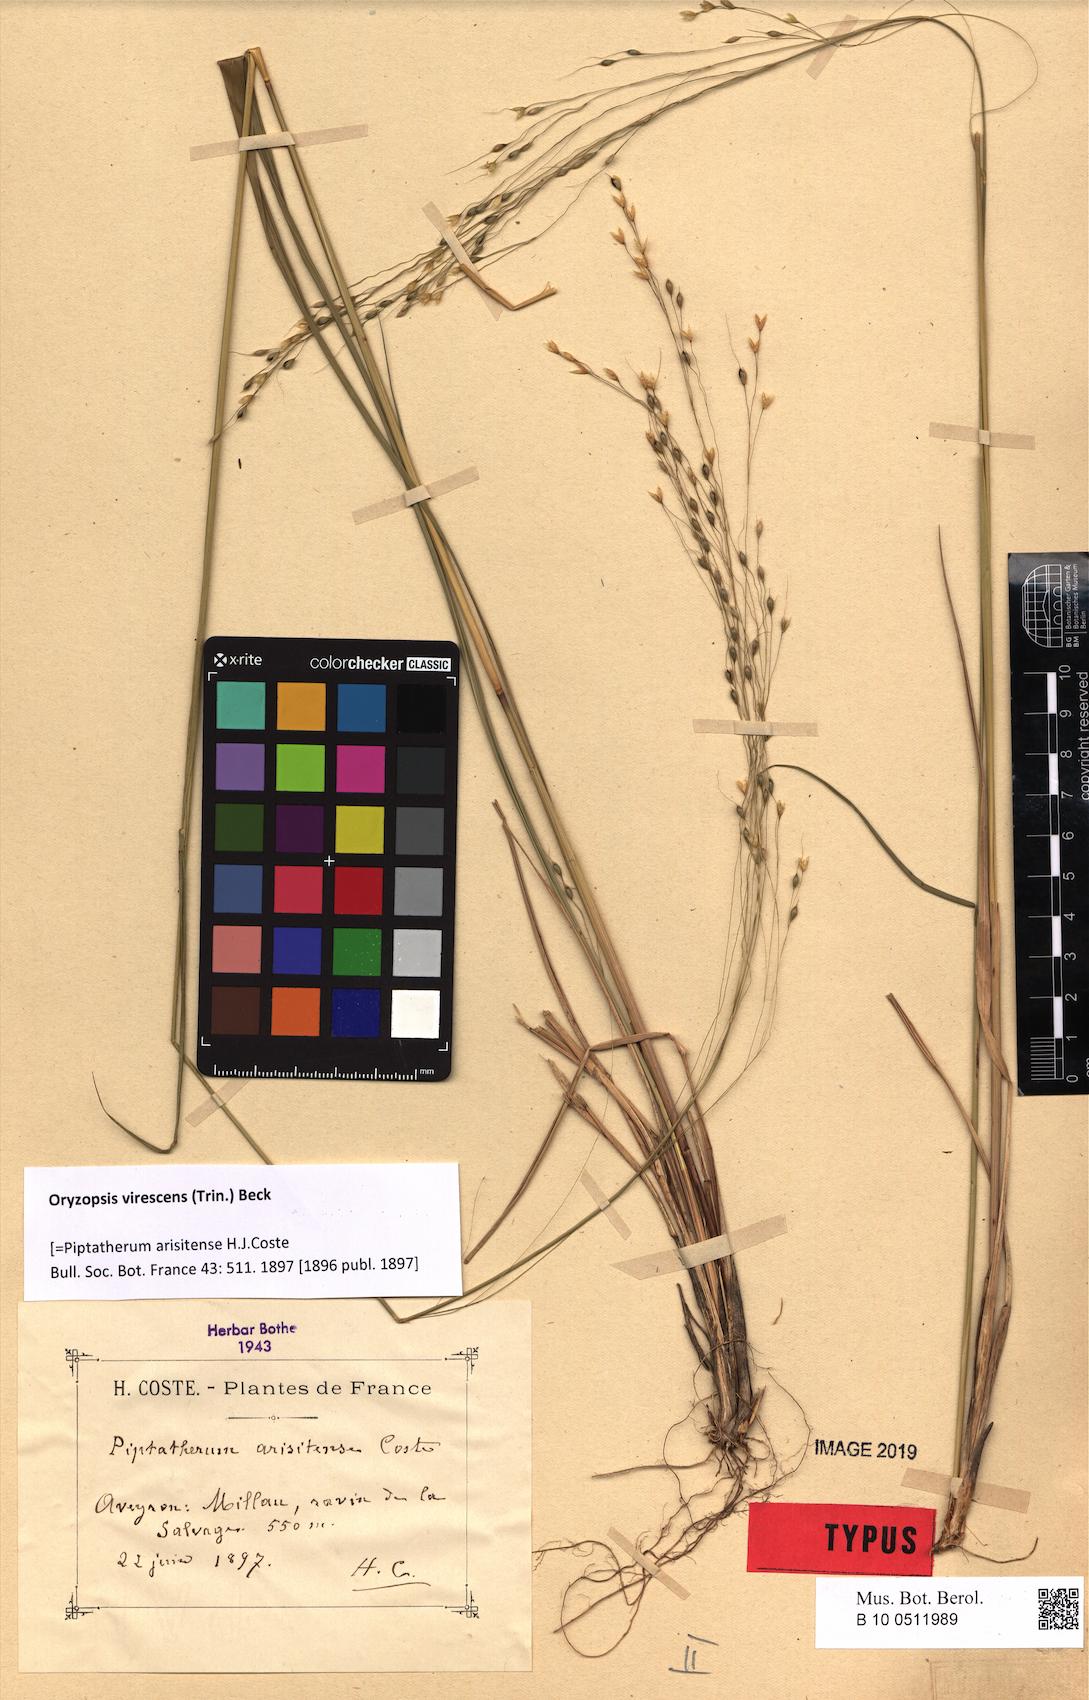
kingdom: Plantae
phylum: Tracheophyta
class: Liliopsida
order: Poales
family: Poaceae
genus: Achnatherum
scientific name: Achnatherum virescens
